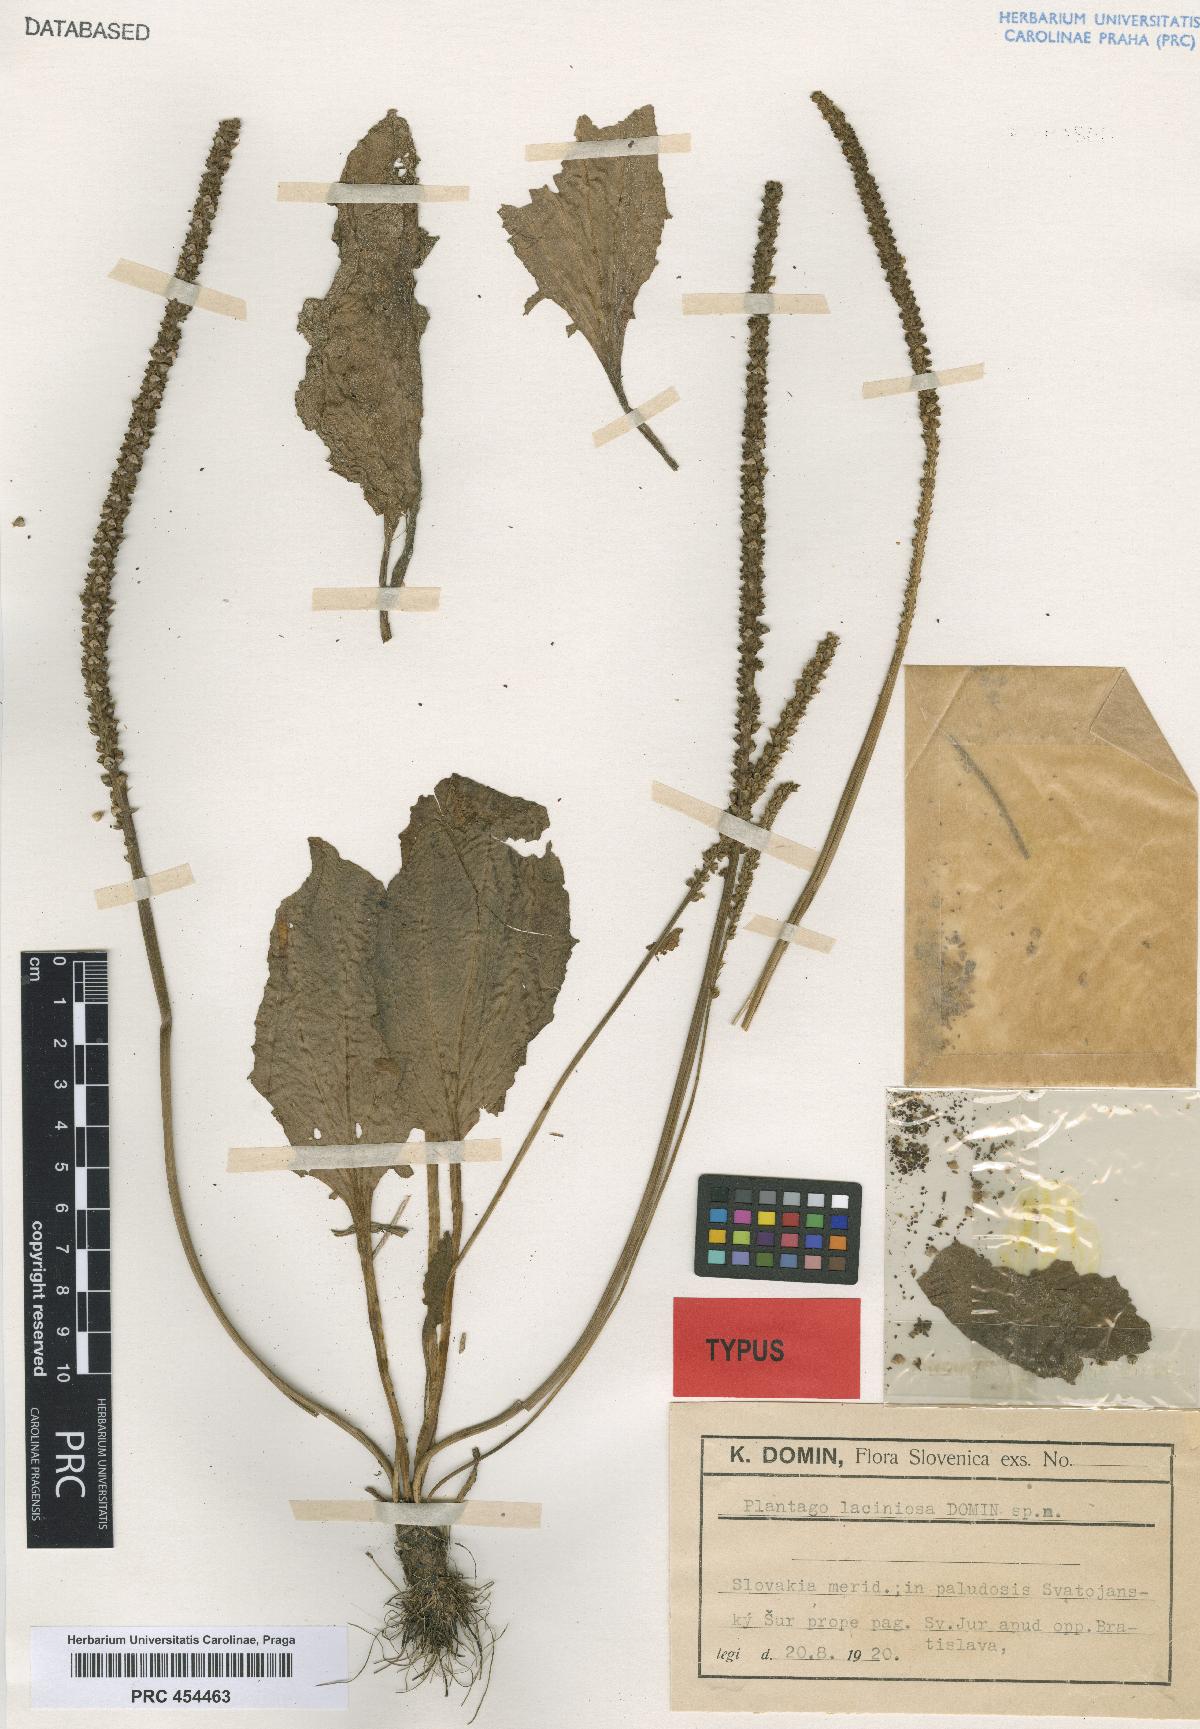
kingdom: Plantae
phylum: Tracheophyta
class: Magnoliopsida
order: Lamiales
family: Plantaginaceae
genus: Plantago
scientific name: Plantago major
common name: Common plantain
